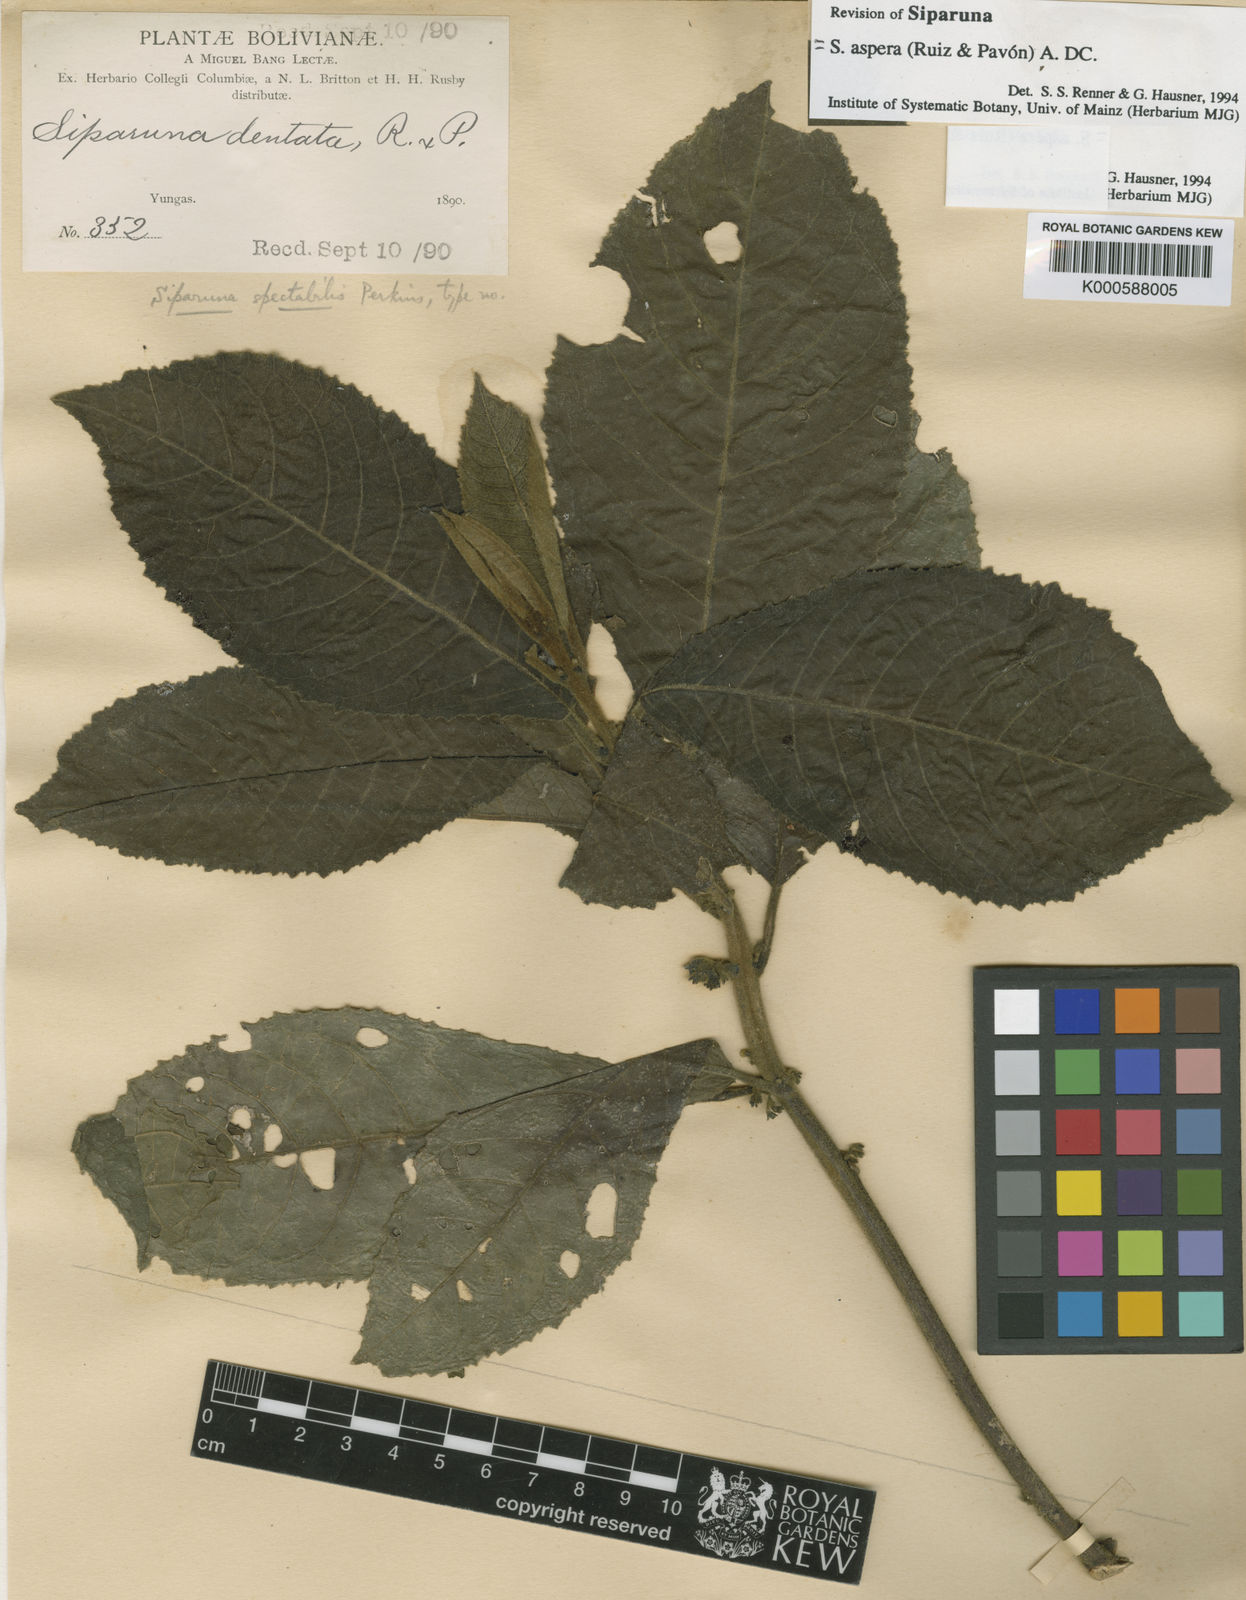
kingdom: Plantae
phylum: Tracheophyta
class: Magnoliopsida
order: Laurales
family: Siparunaceae
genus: Siparuna
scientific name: Siparuna aspera
